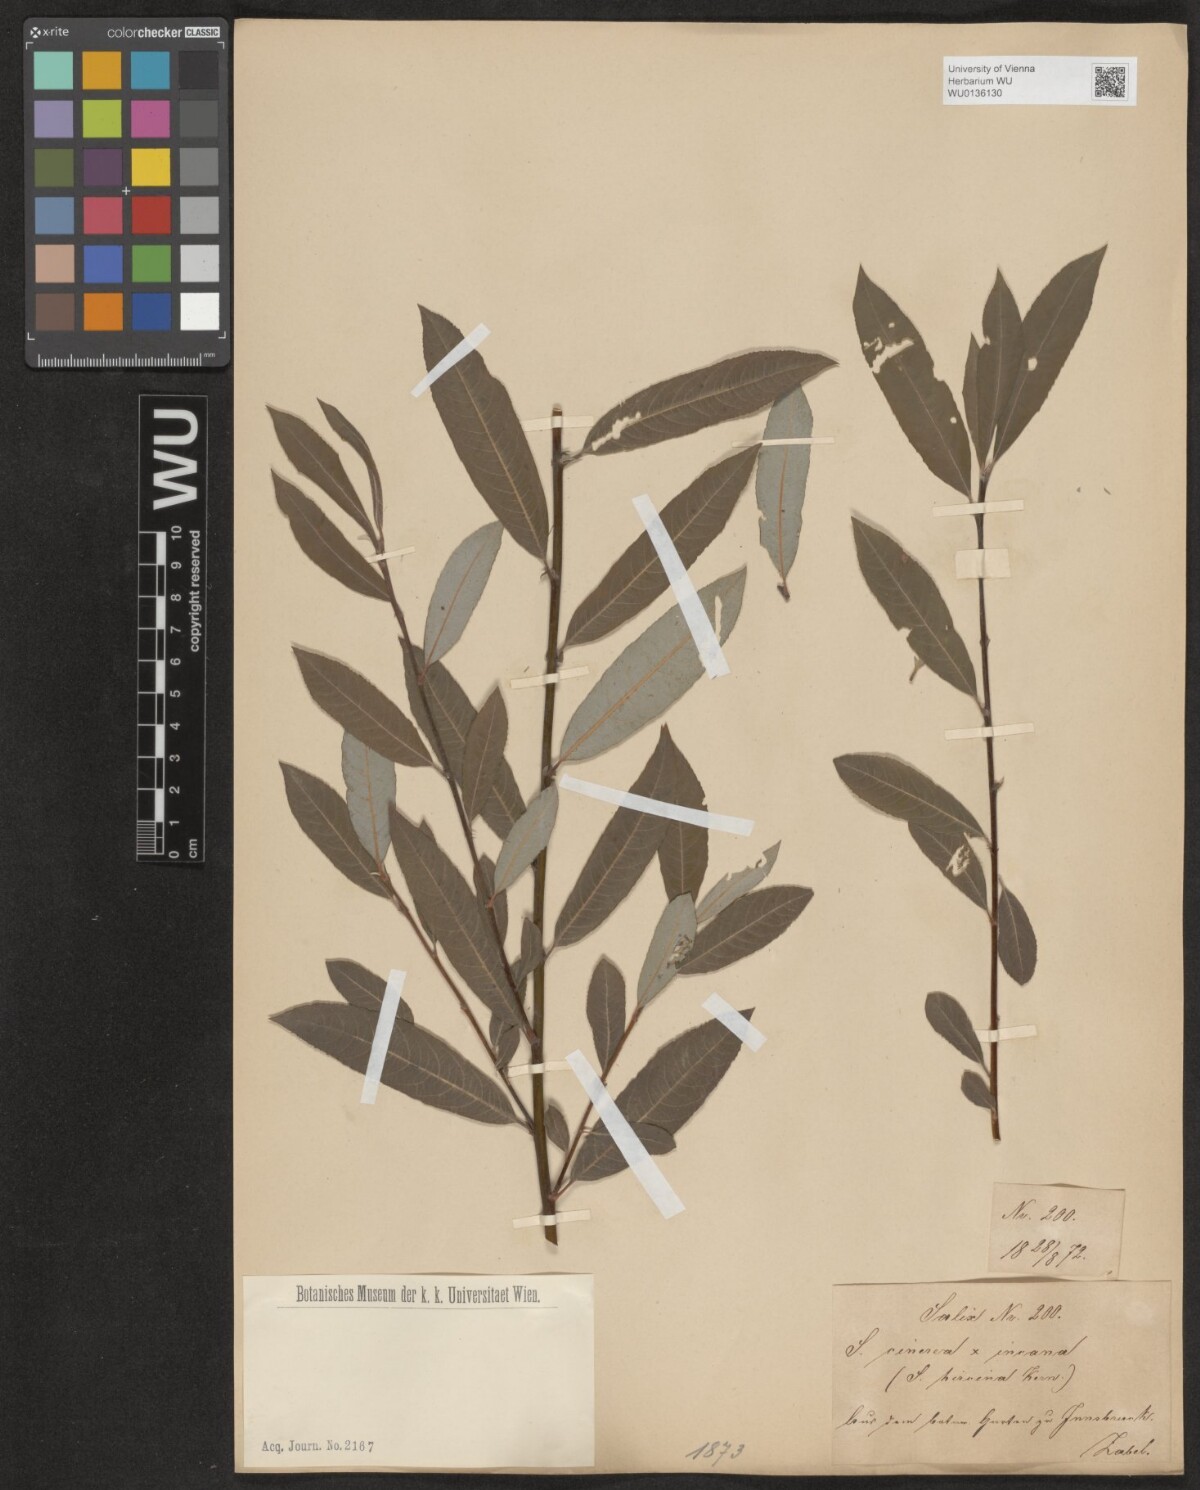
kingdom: Plantae
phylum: Tracheophyta
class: Magnoliopsida
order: Malpighiales
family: Salicaceae
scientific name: Salicaceae
